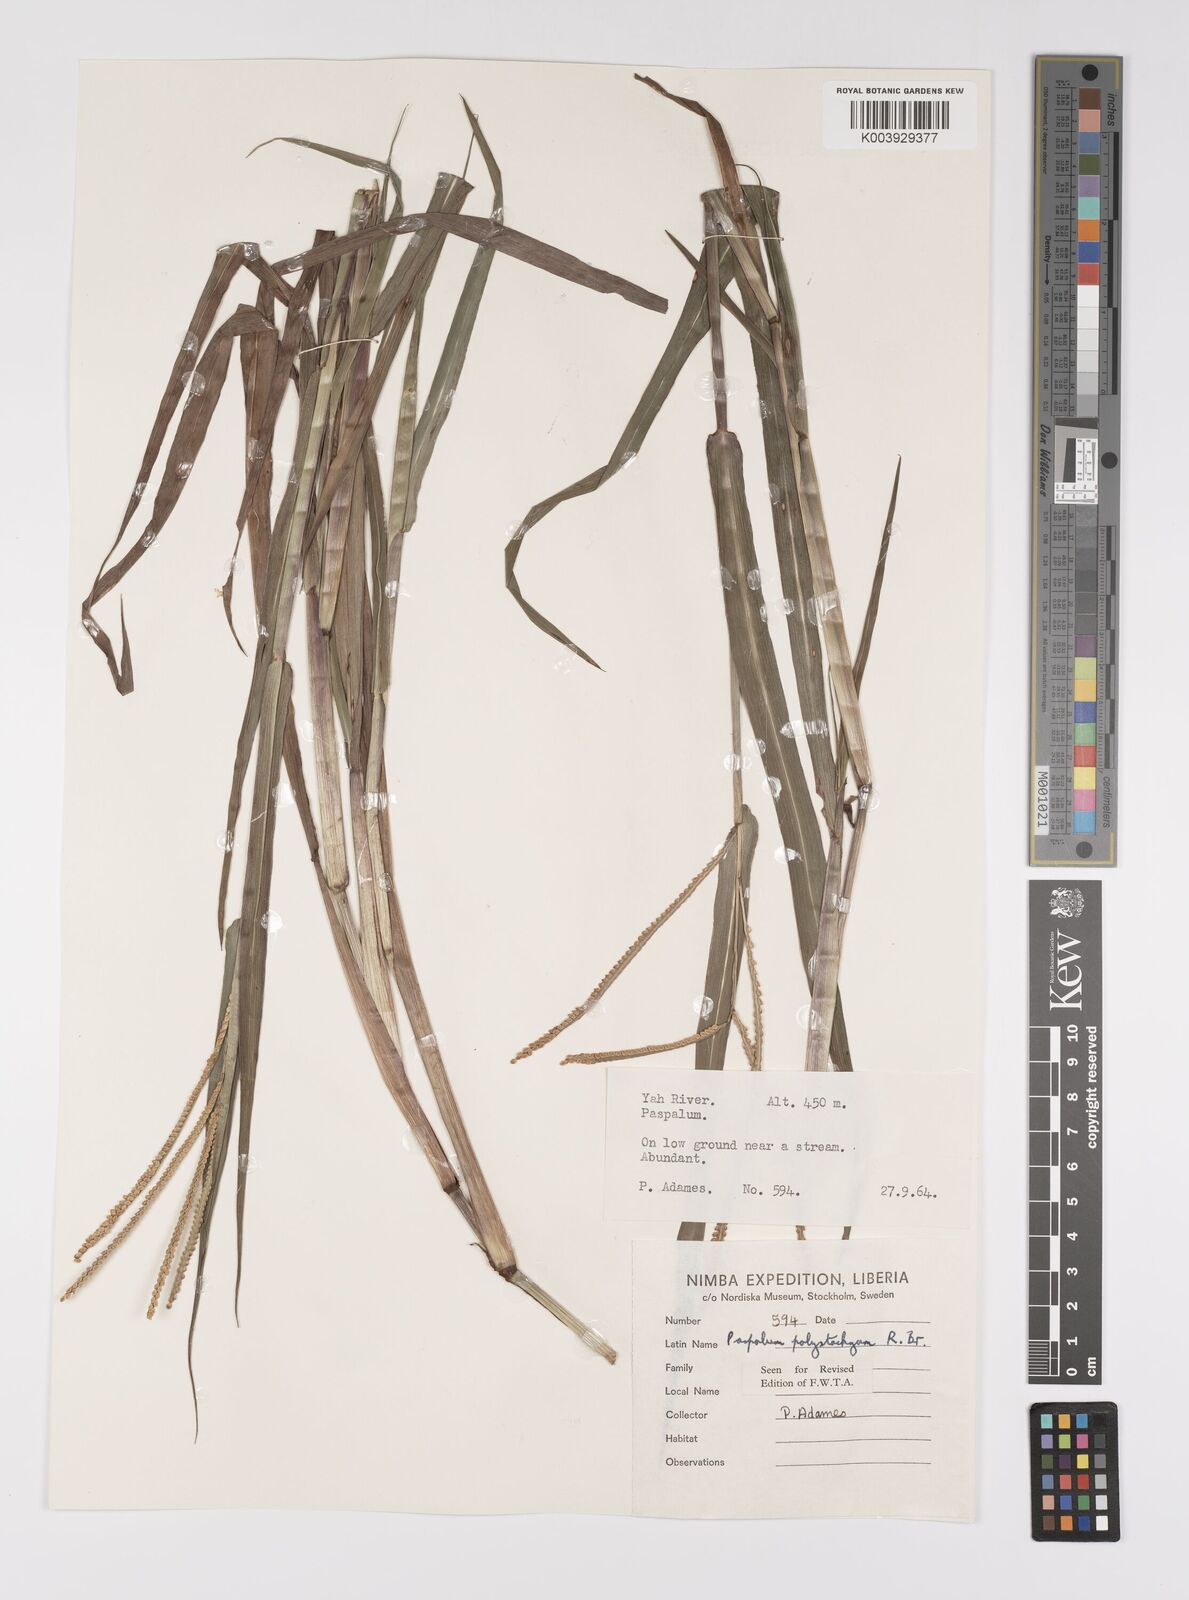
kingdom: Plantae
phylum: Tracheophyta
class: Liliopsida
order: Poales
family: Poaceae
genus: Paspalum
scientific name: Paspalum scrobiculatum
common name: Kodo millet
